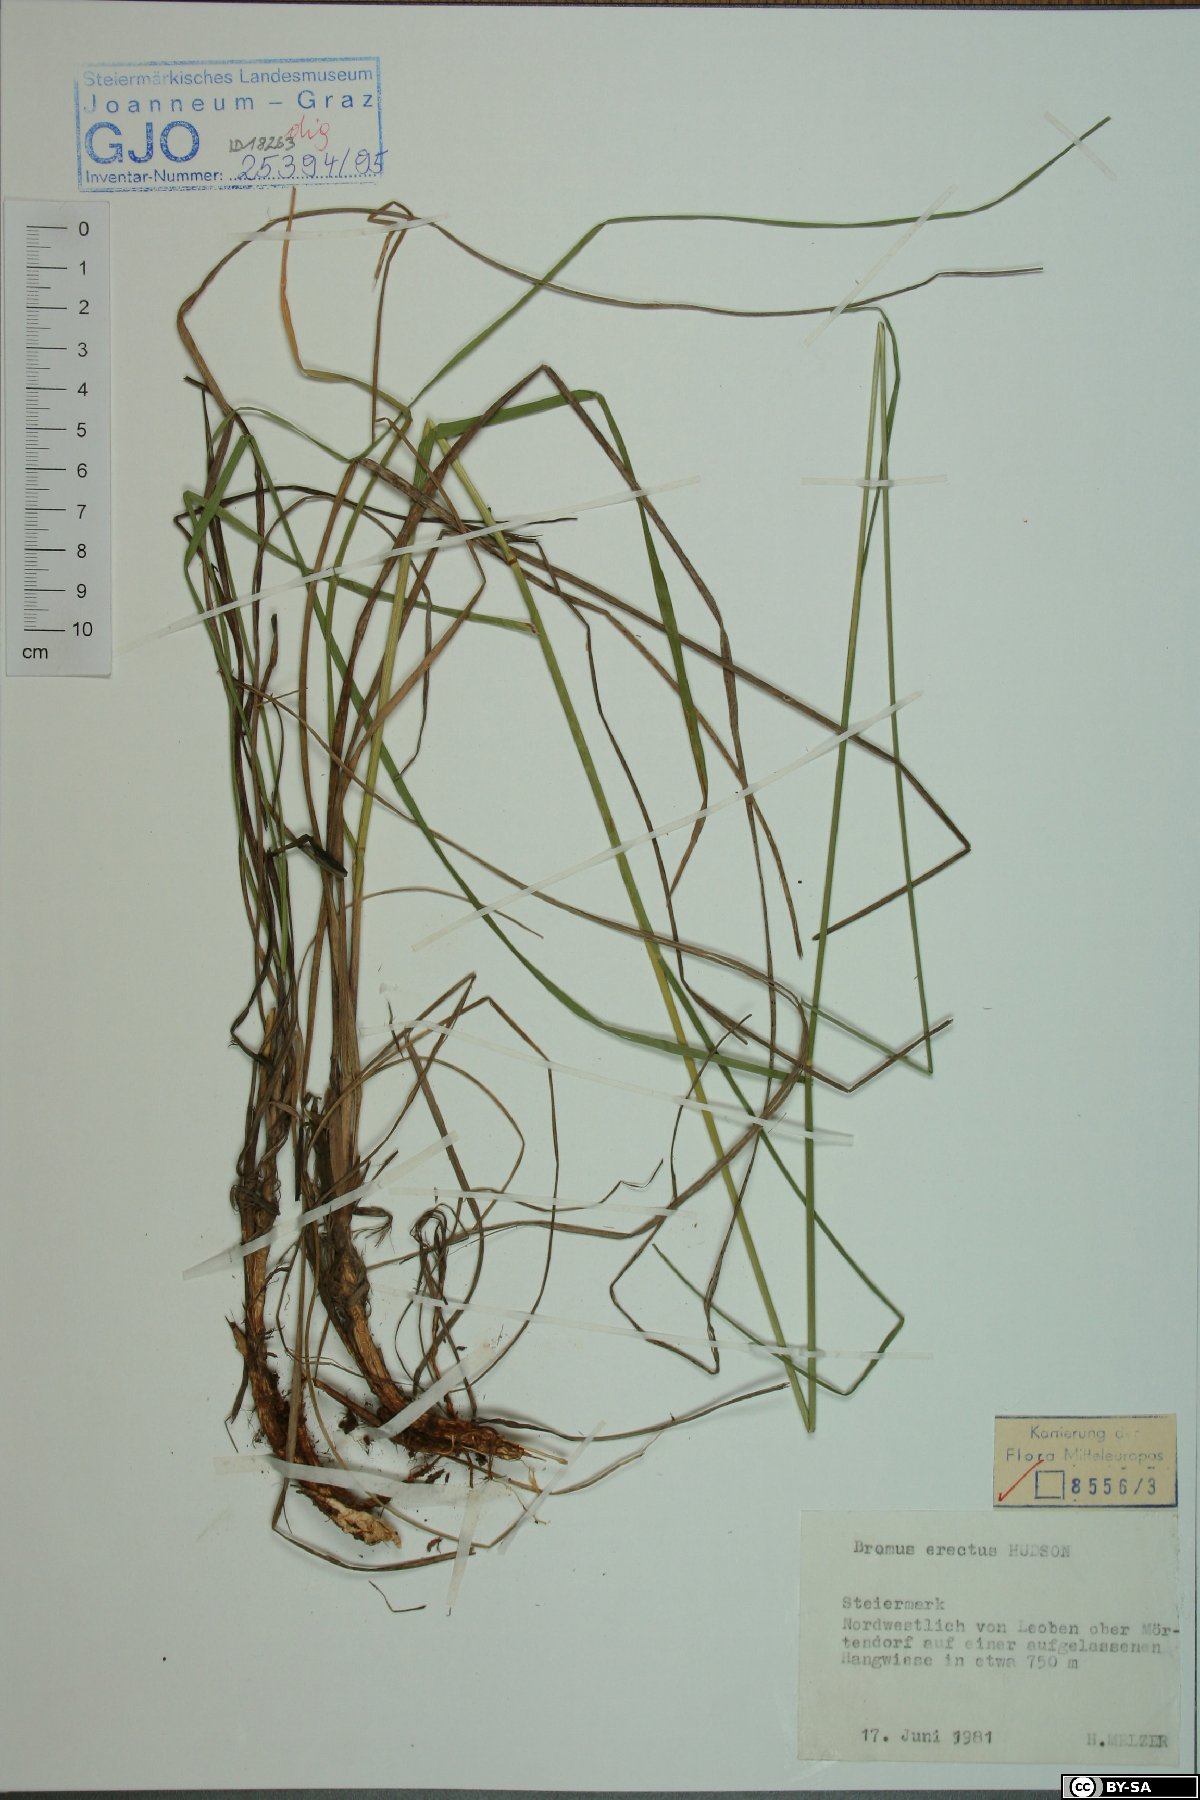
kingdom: Plantae
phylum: Tracheophyta
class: Liliopsida
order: Poales
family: Poaceae
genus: Bromus
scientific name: Bromus erectus
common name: Erect brome
